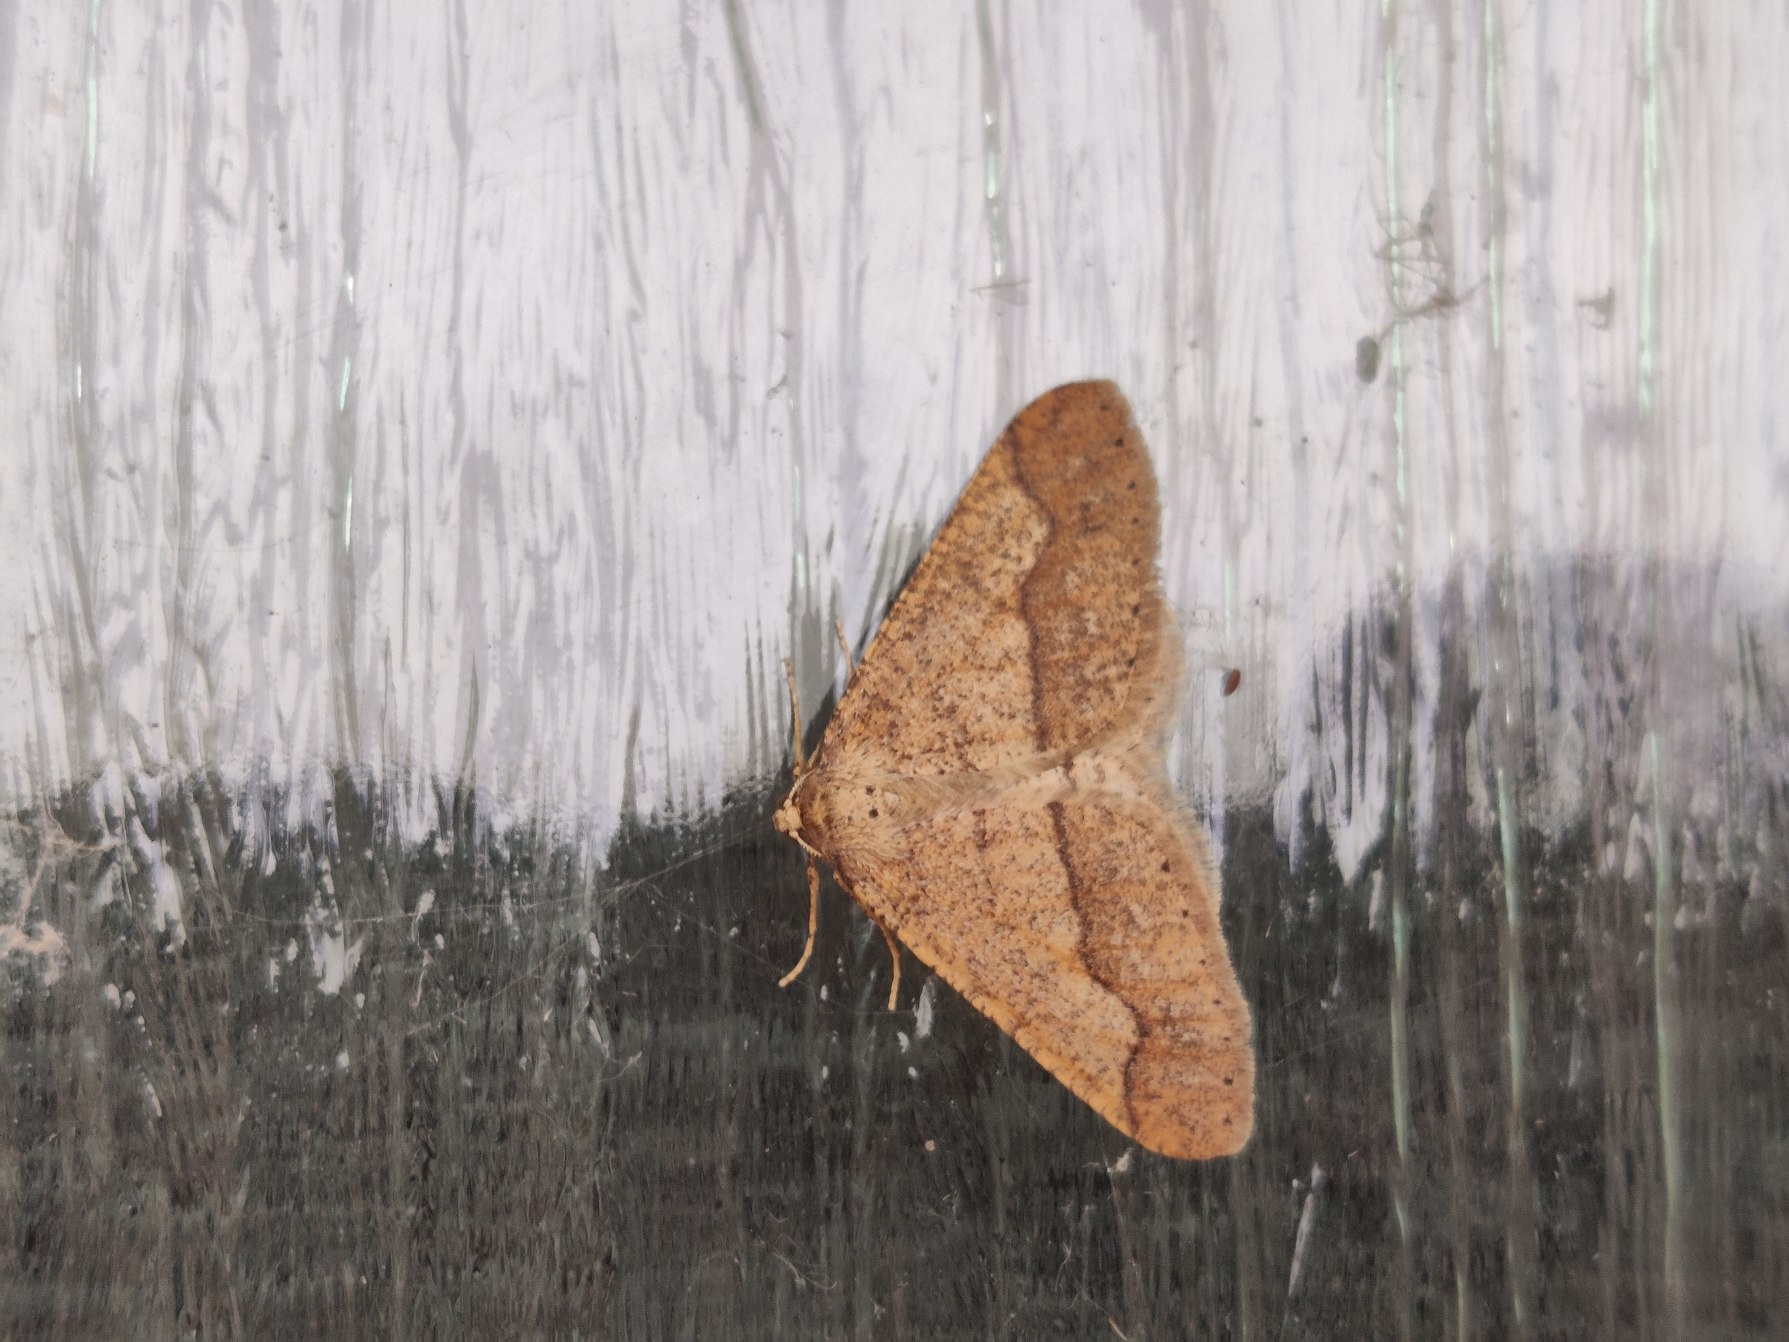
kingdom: Animalia
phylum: Arthropoda
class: Insecta
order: Lepidoptera
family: Geometridae
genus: Agriopis
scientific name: Agriopis marginaria
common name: Grågul frostmåler
